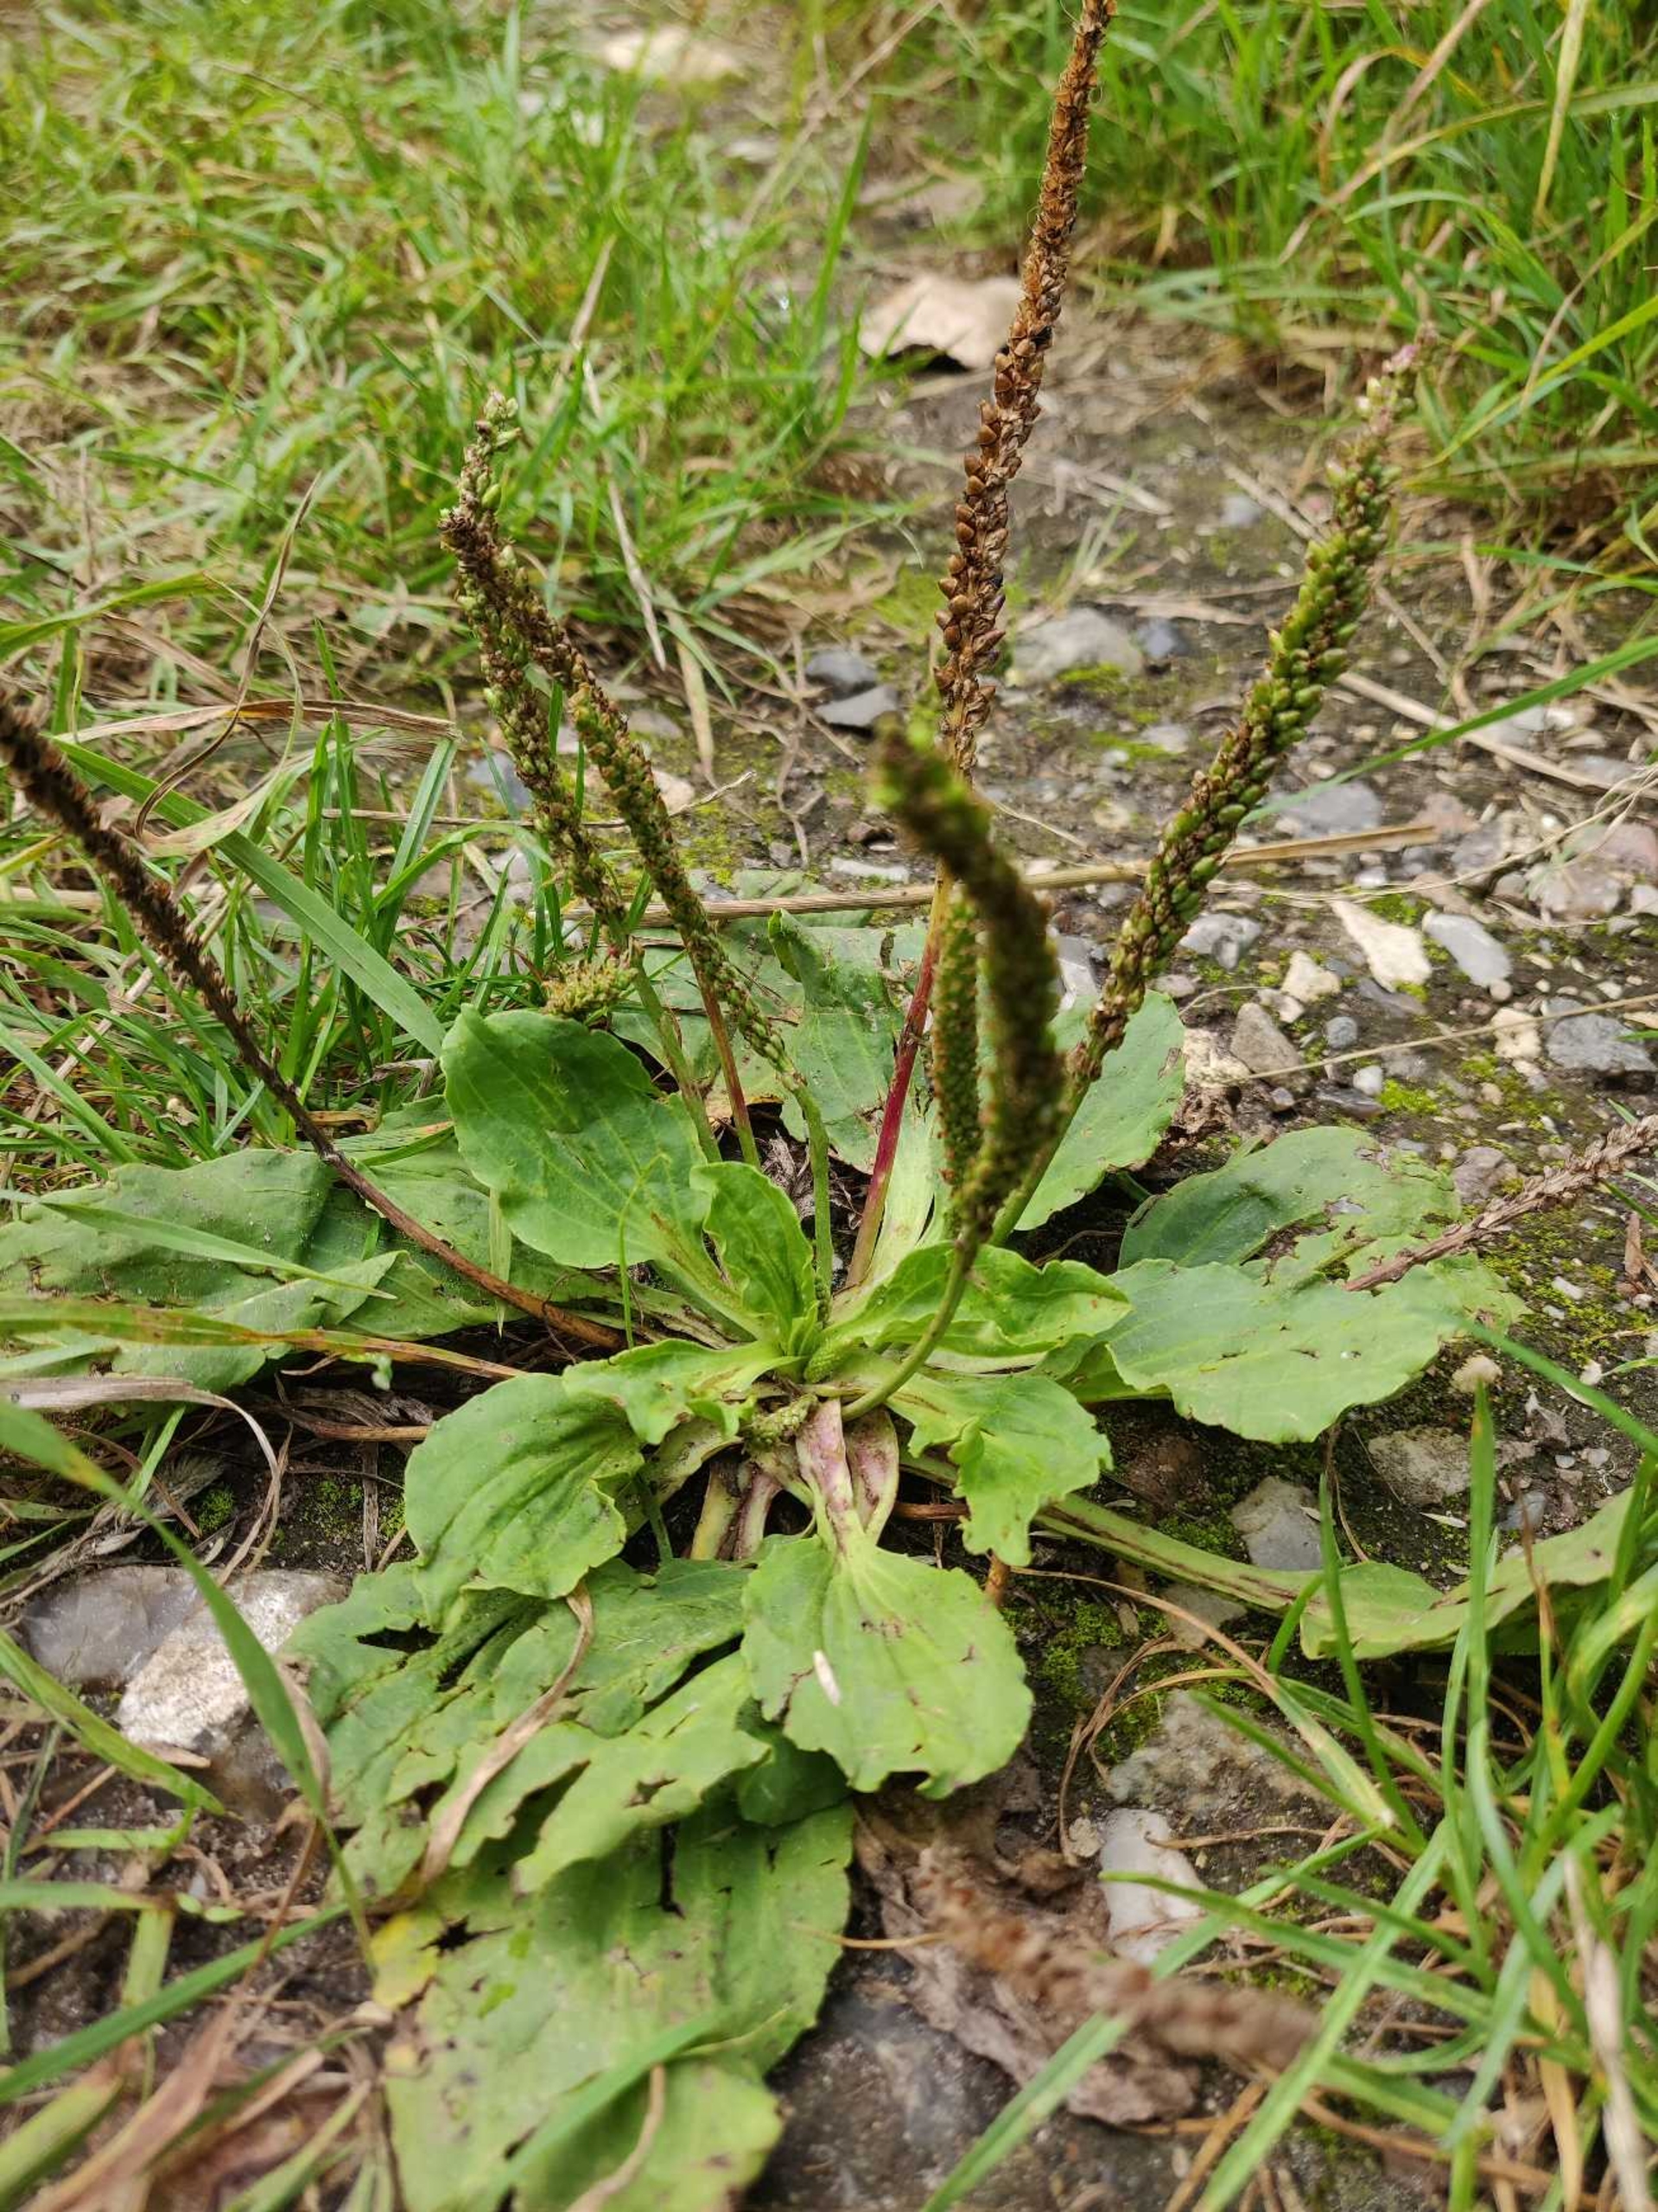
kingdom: Plantae
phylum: Tracheophyta
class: Magnoliopsida
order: Lamiales
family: Plantaginaceae
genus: Plantago
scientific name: Plantago major
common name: Glat vejbred
